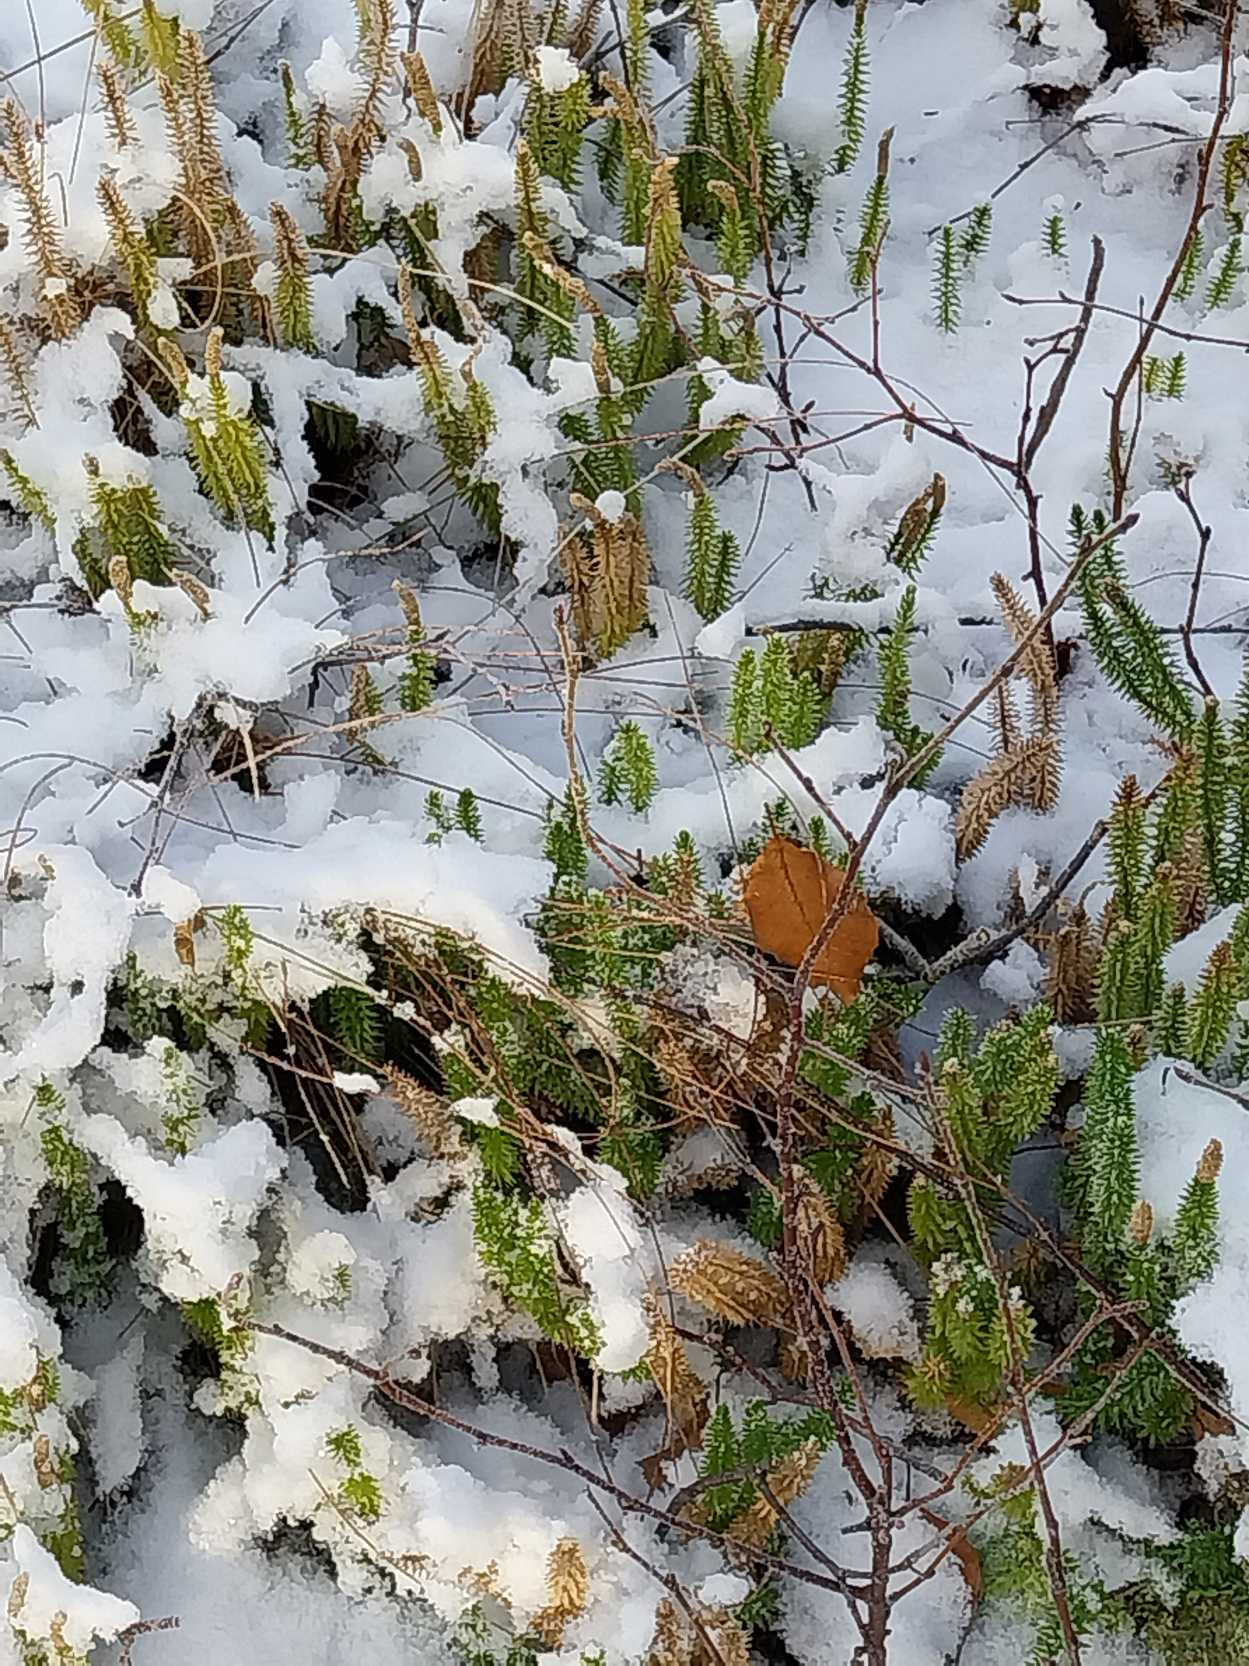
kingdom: Plantae
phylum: Tracheophyta
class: Lycopodiopsida
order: Lycopodiales
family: Lycopodiaceae
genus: Spinulum
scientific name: Spinulum annotinum
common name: Femradet ulvefod
